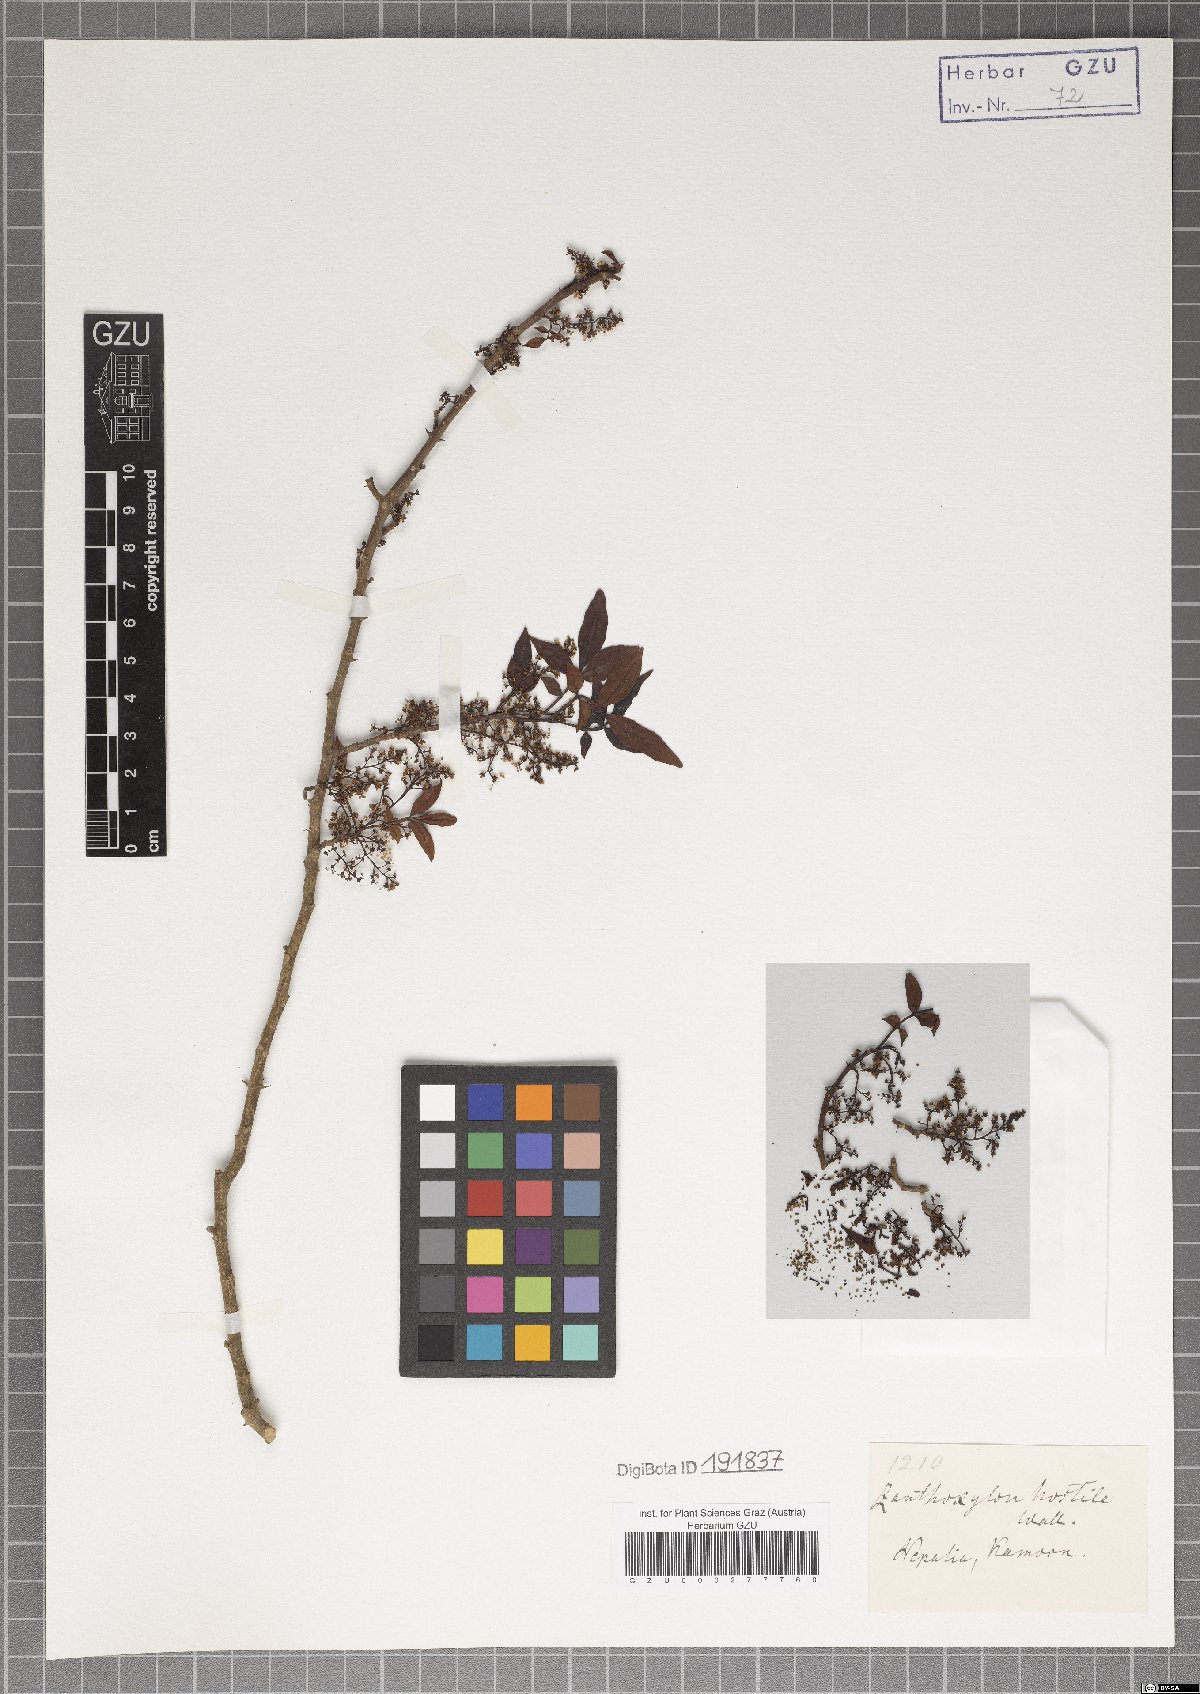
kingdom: Plantae
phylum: Tracheophyta
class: Magnoliopsida
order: Sapindales
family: Rutaceae
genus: Zanthoxylum
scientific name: Zanthoxylum armatum
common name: Winged prickly-ash
